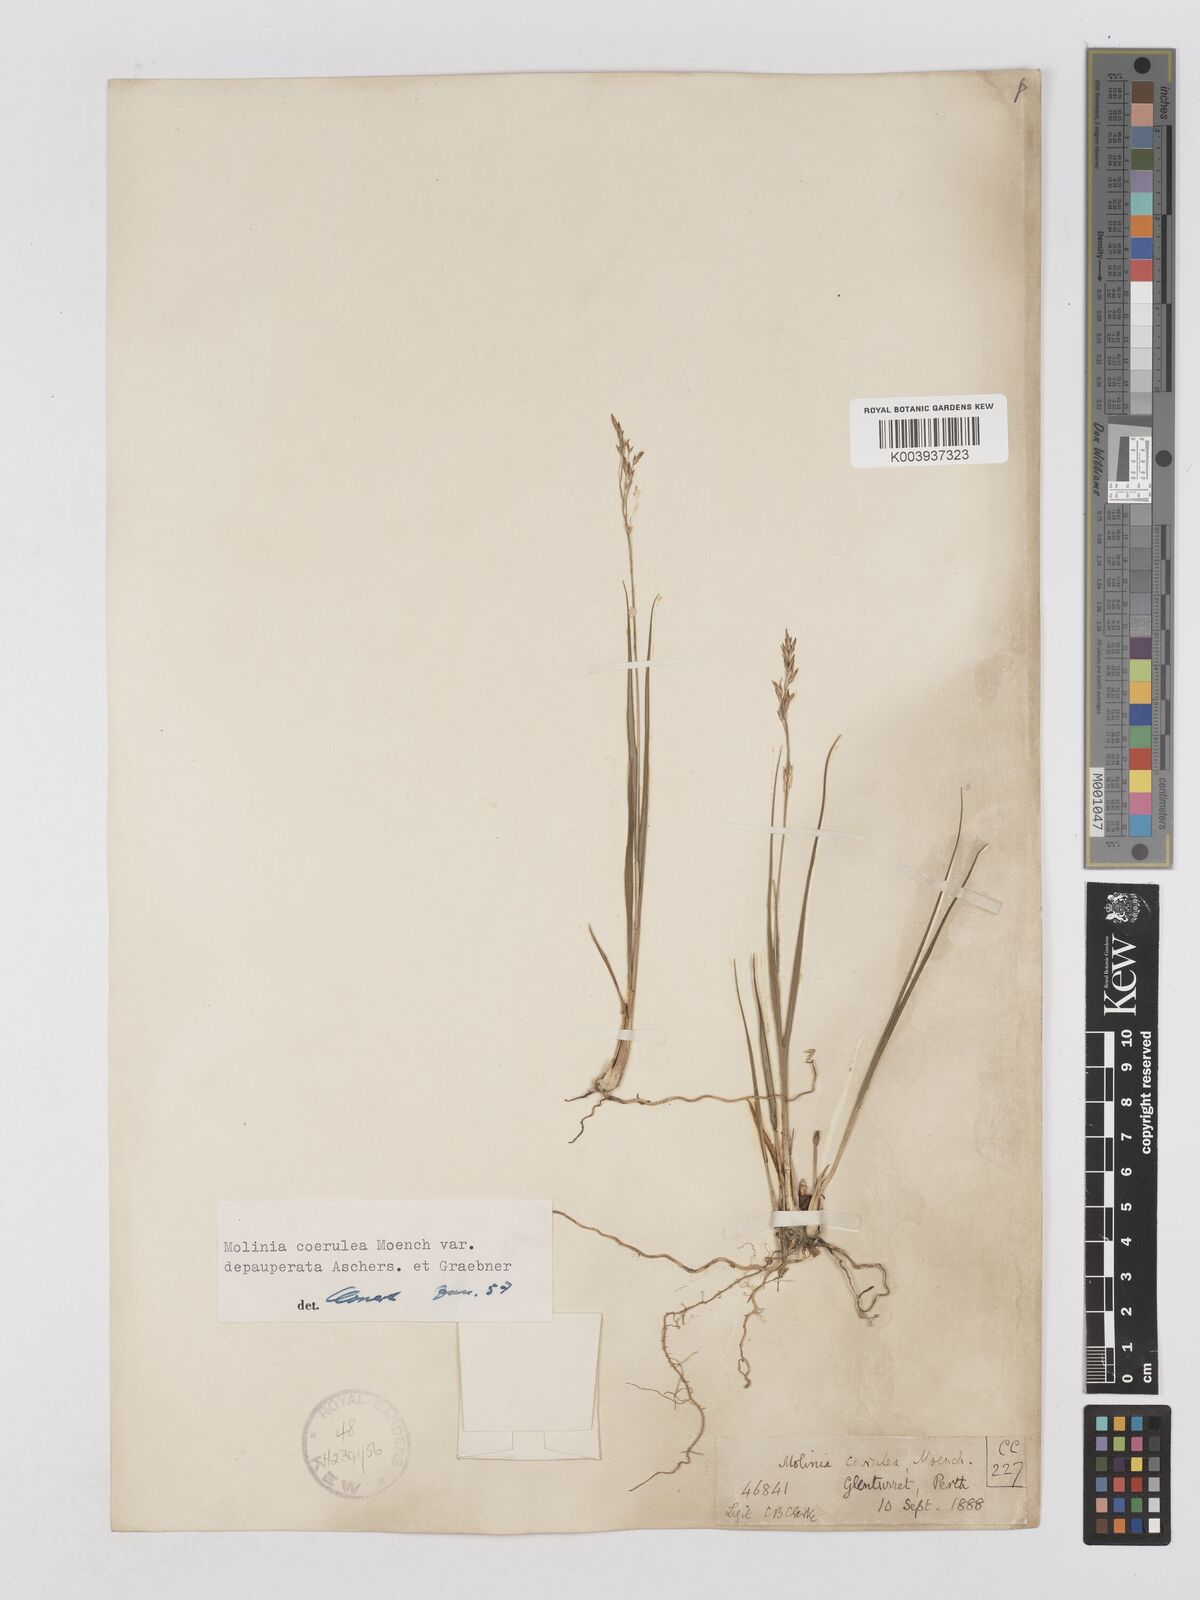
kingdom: Plantae
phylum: Tracheophyta
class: Liliopsida
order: Poales
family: Poaceae
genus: Molinia
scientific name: Molinia caerulea
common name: Purple moor-grass
